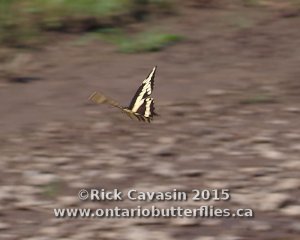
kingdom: Animalia
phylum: Arthropoda
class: Insecta
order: Lepidoptera
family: Papilionidae
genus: Papilio
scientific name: Papilio cresphontes
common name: Eastern Giant Swallowtail
